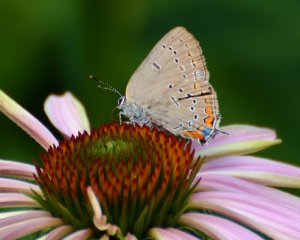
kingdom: Animalia
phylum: Arthropoda
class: Insecta
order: Lepidoptera
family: Lycaenidae
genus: Strymon
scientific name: Strymon acadica
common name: Acadian Hairstreak
